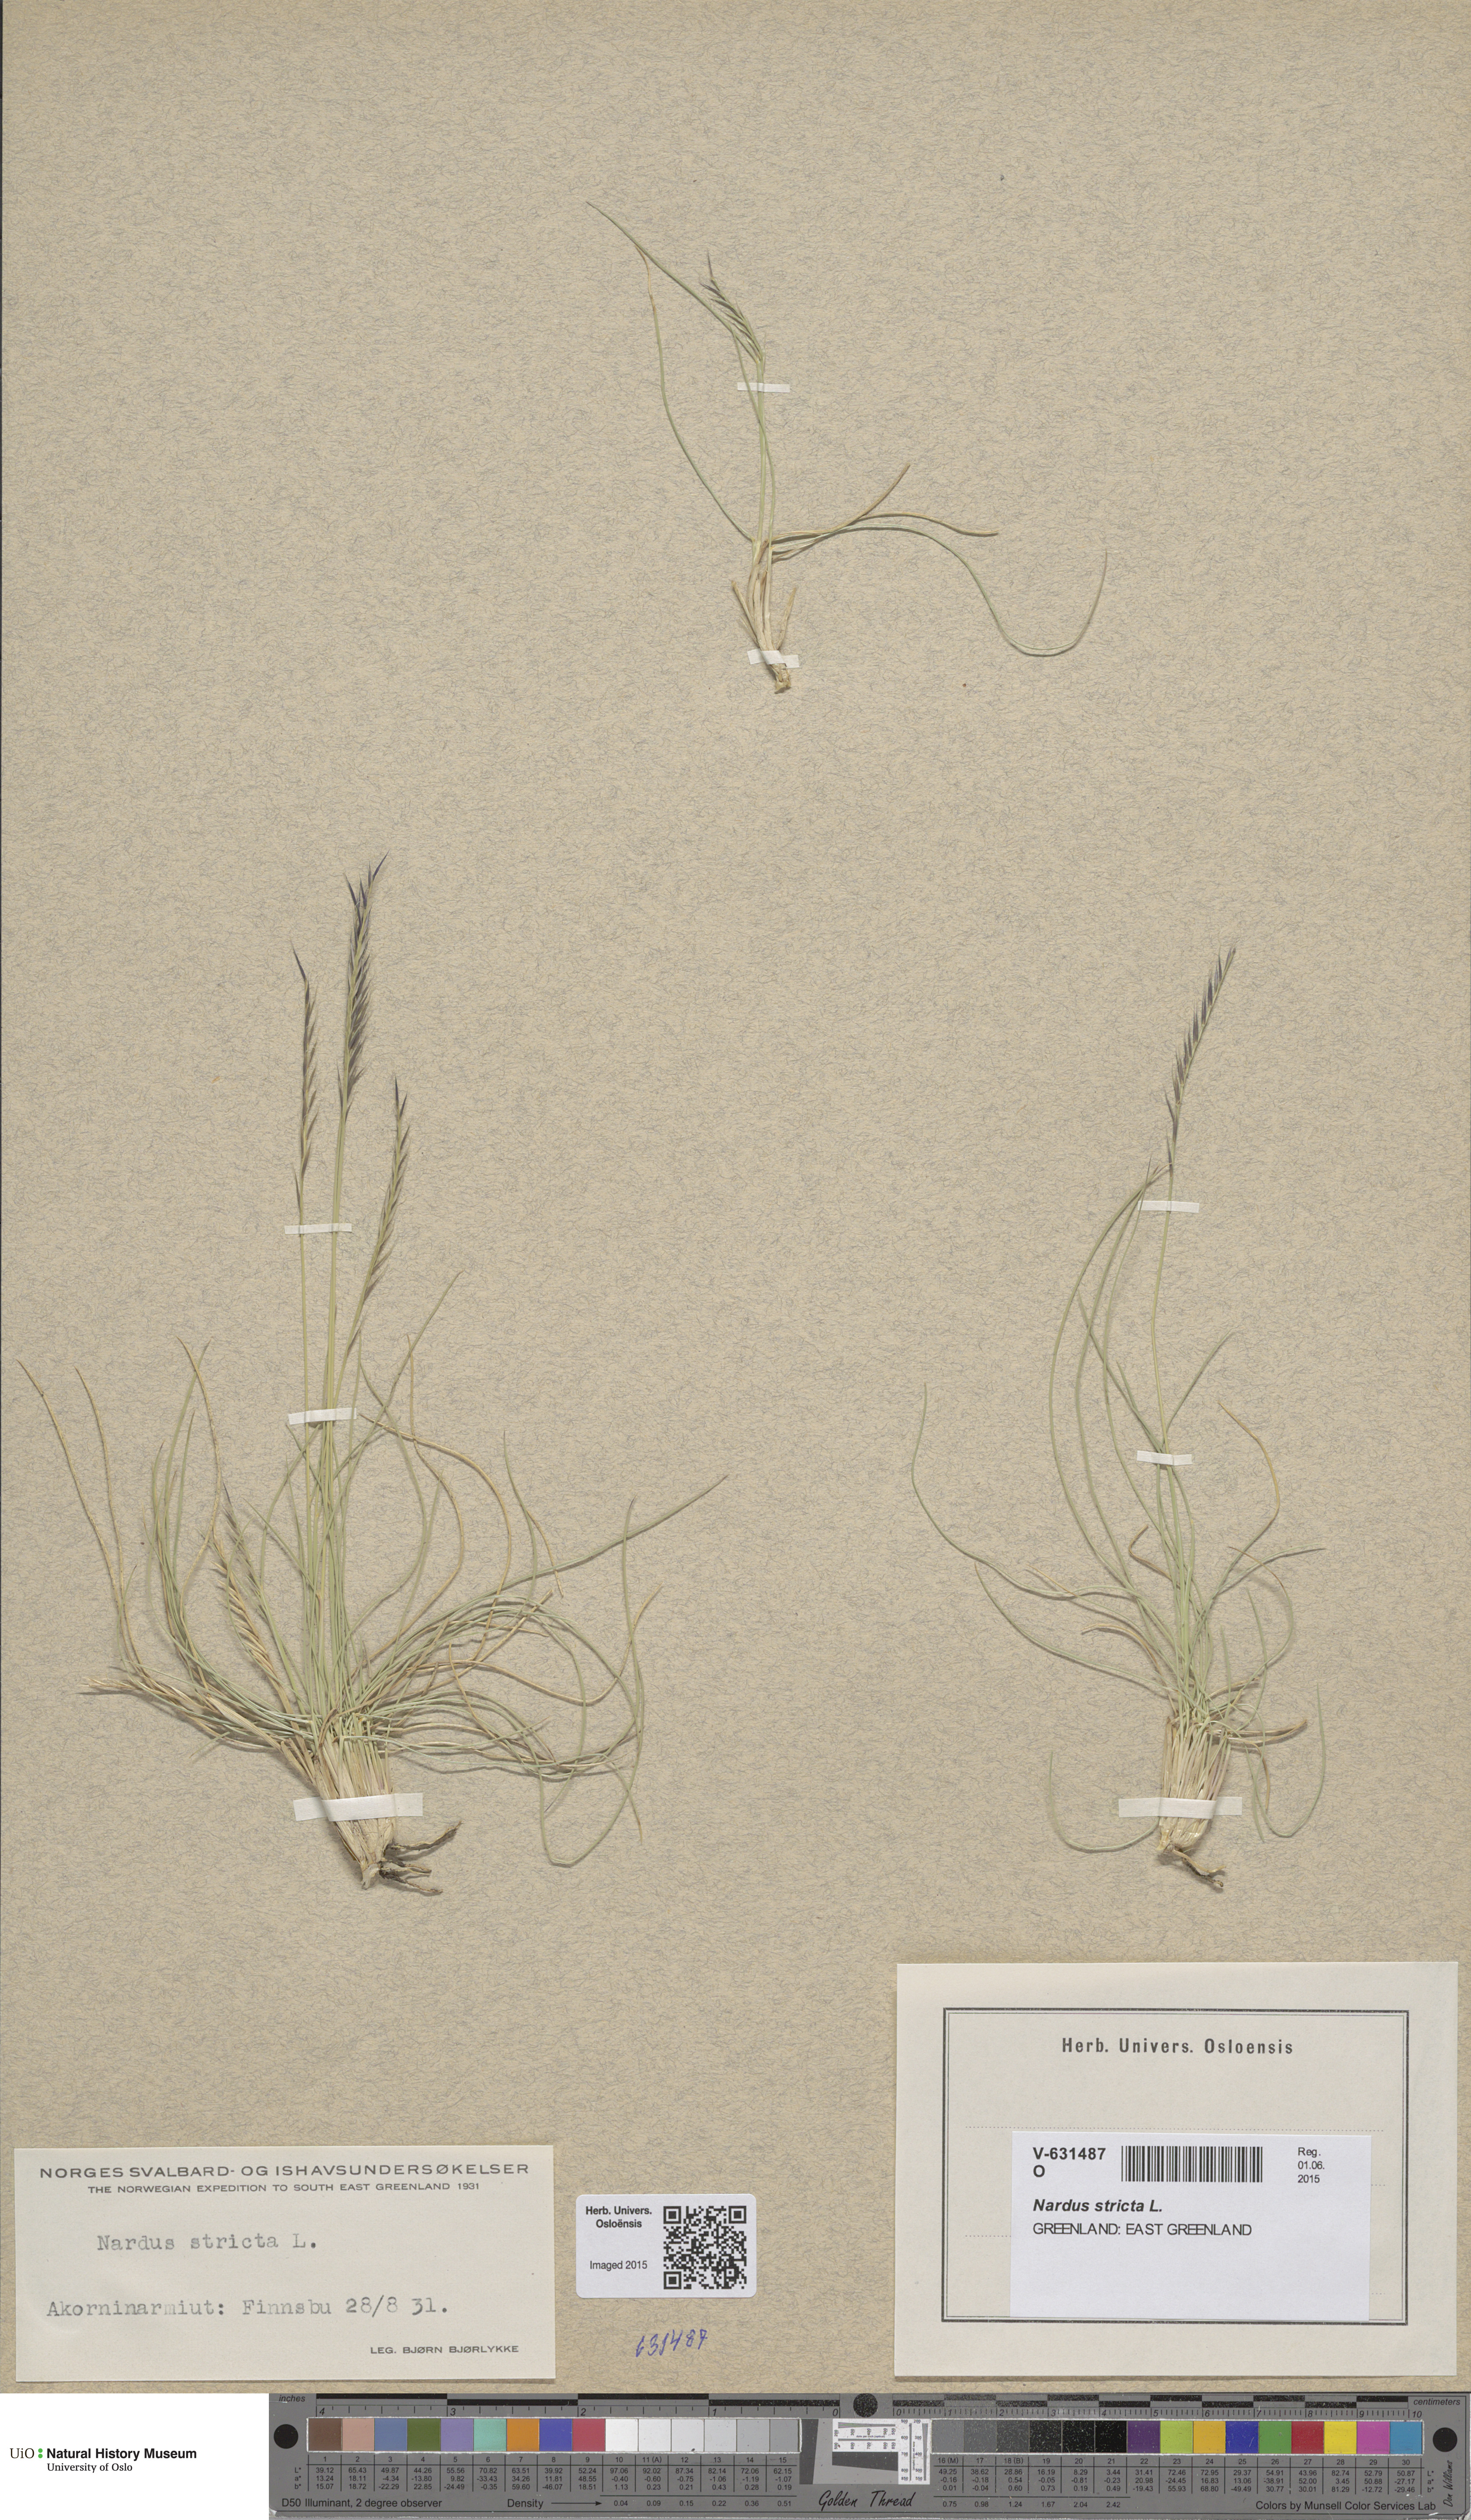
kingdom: Plantae
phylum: Tracheophyta
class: Liliopsida
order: Poales
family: Poaceae
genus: Nardus
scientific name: Nardus stricta
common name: Mat-grass
